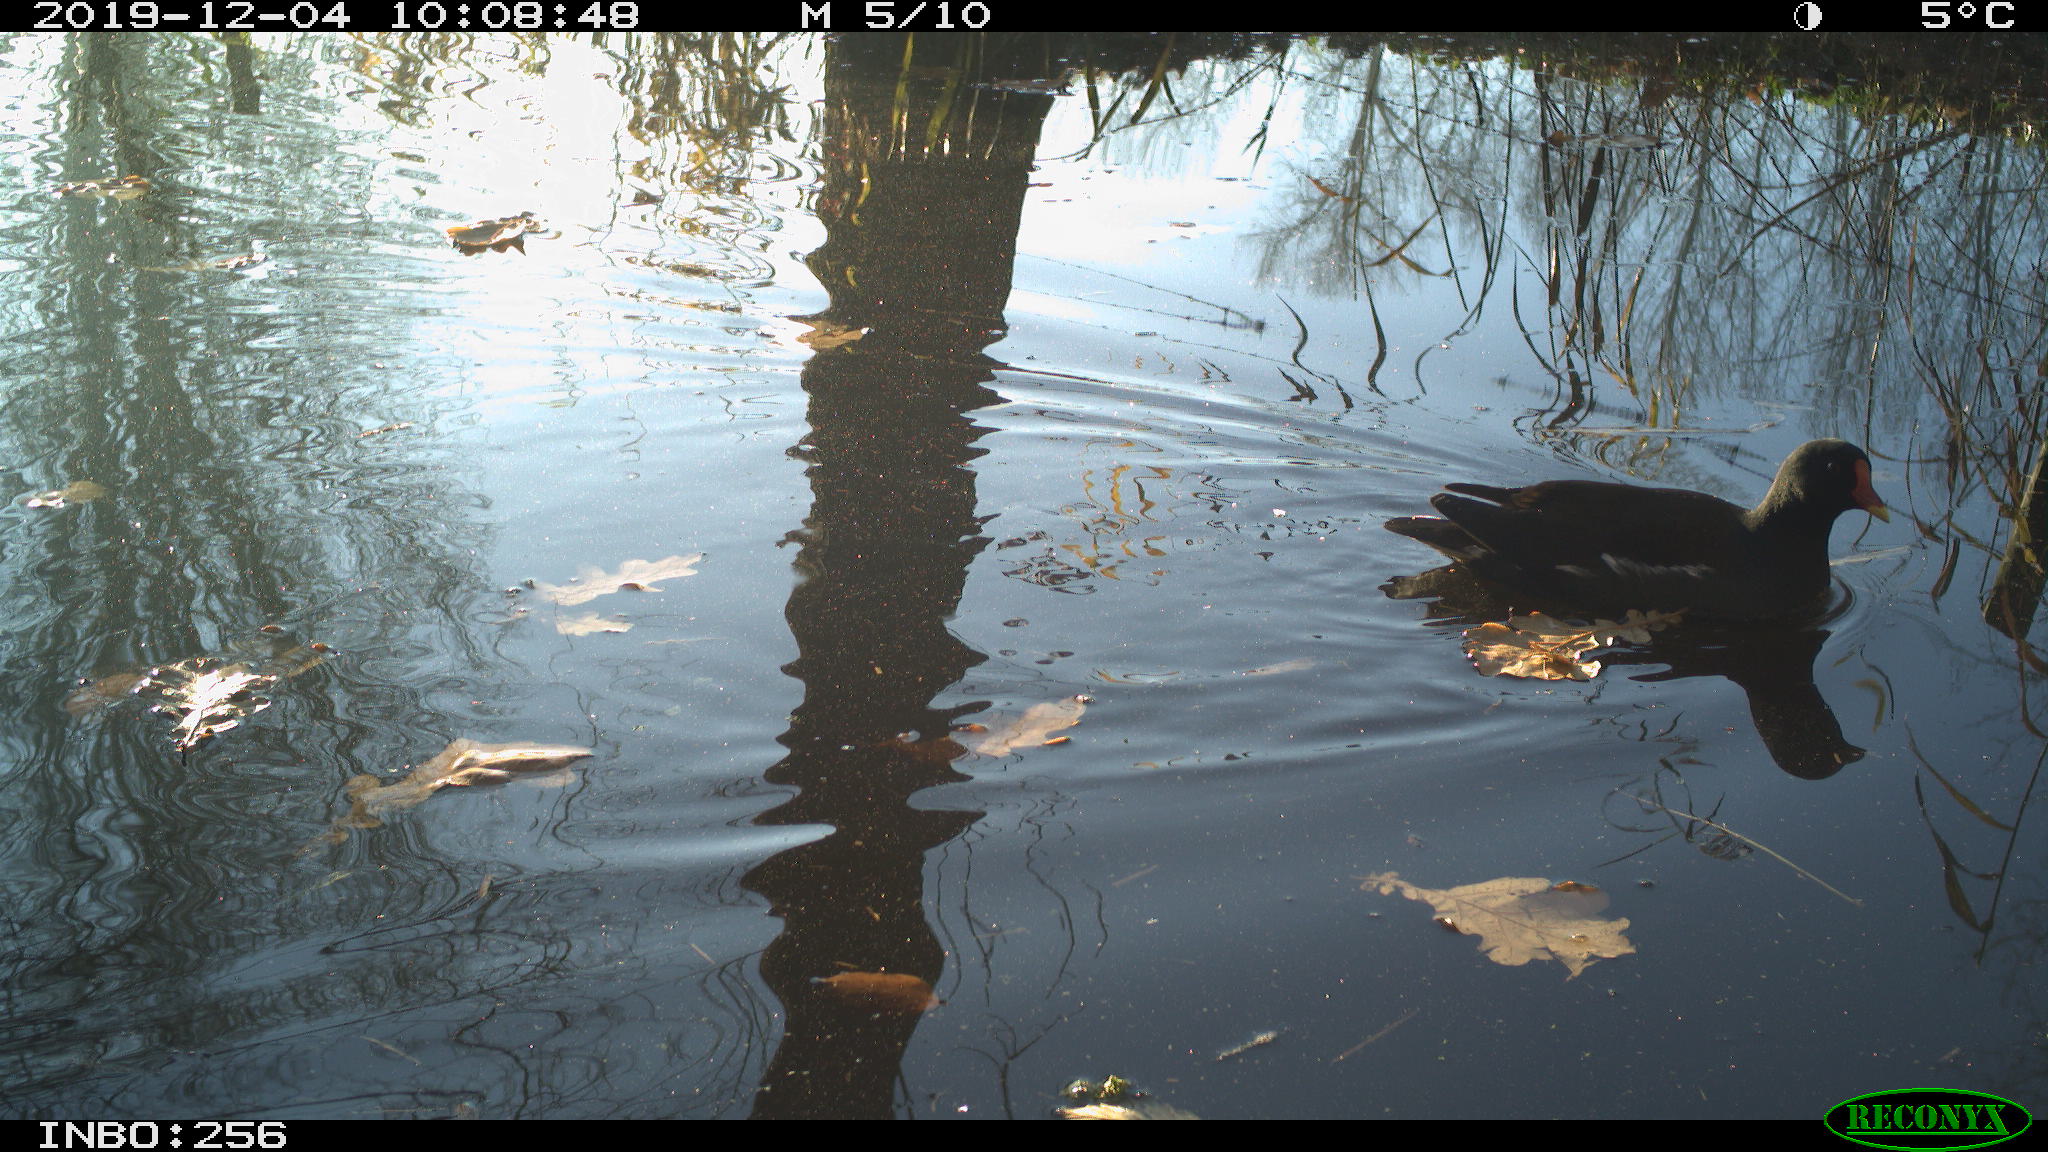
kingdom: Animalia
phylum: Chordata
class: Aves
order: Gruiformes
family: Rallidae
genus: Gallinula
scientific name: Gallinula chloropus
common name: Common moorhen
